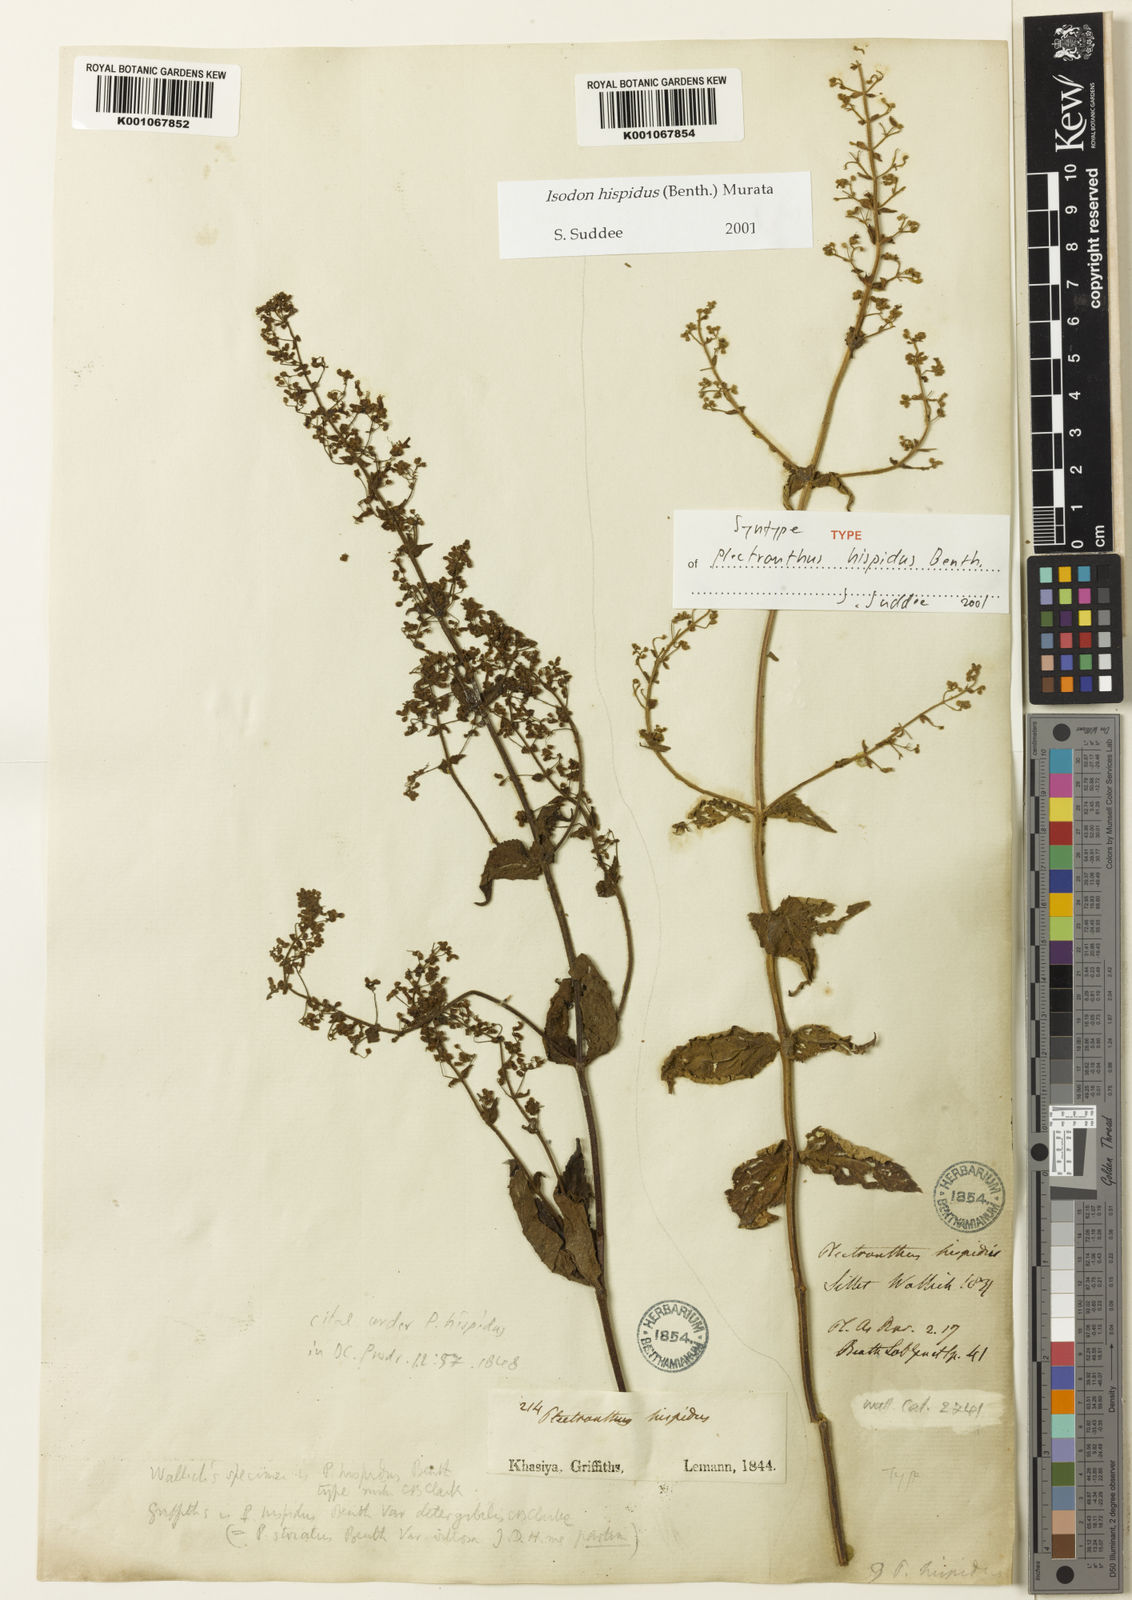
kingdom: Plantae
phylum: Tracheophyta
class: Magnoliopsida
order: Lamiales
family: Lamiaceae
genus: Isodon
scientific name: Isodon hispidus
